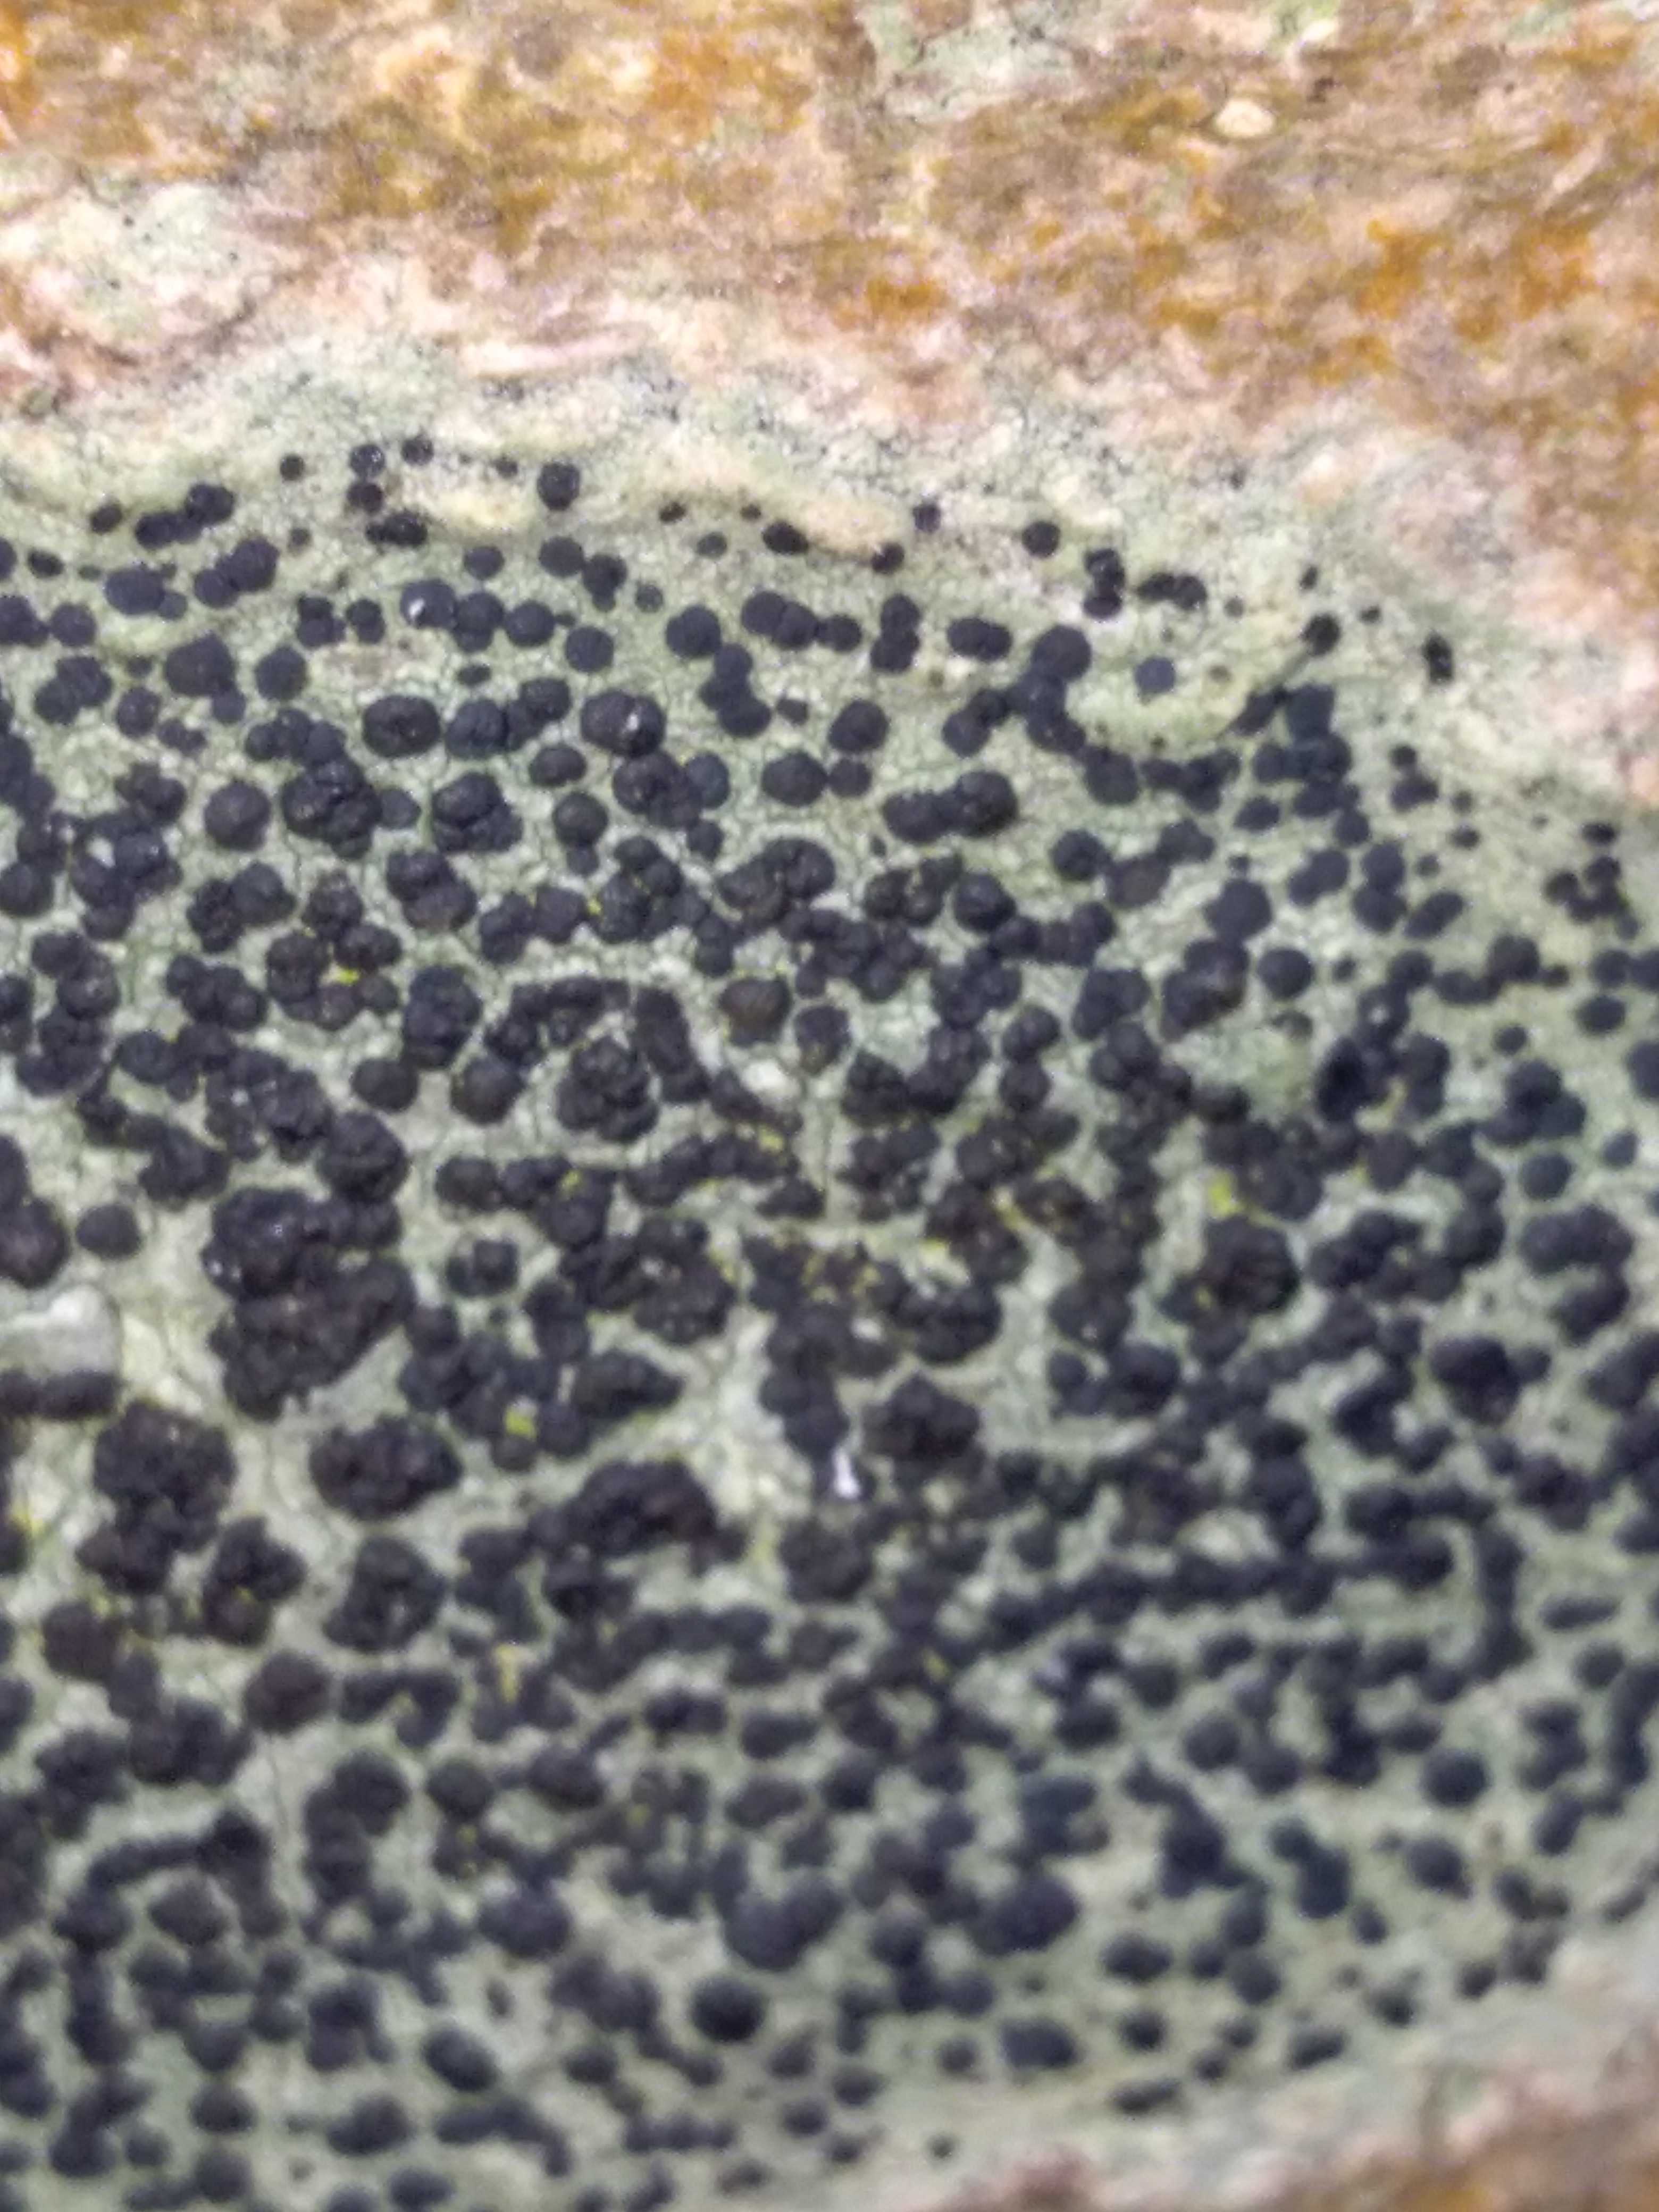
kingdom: Fungi
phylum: Ascomycota
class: Lecanoromycetes
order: Lecanorales
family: Lecanoraceae
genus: Lecidella
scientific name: Lecidella elaeochroma
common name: grågrøn skivelav
